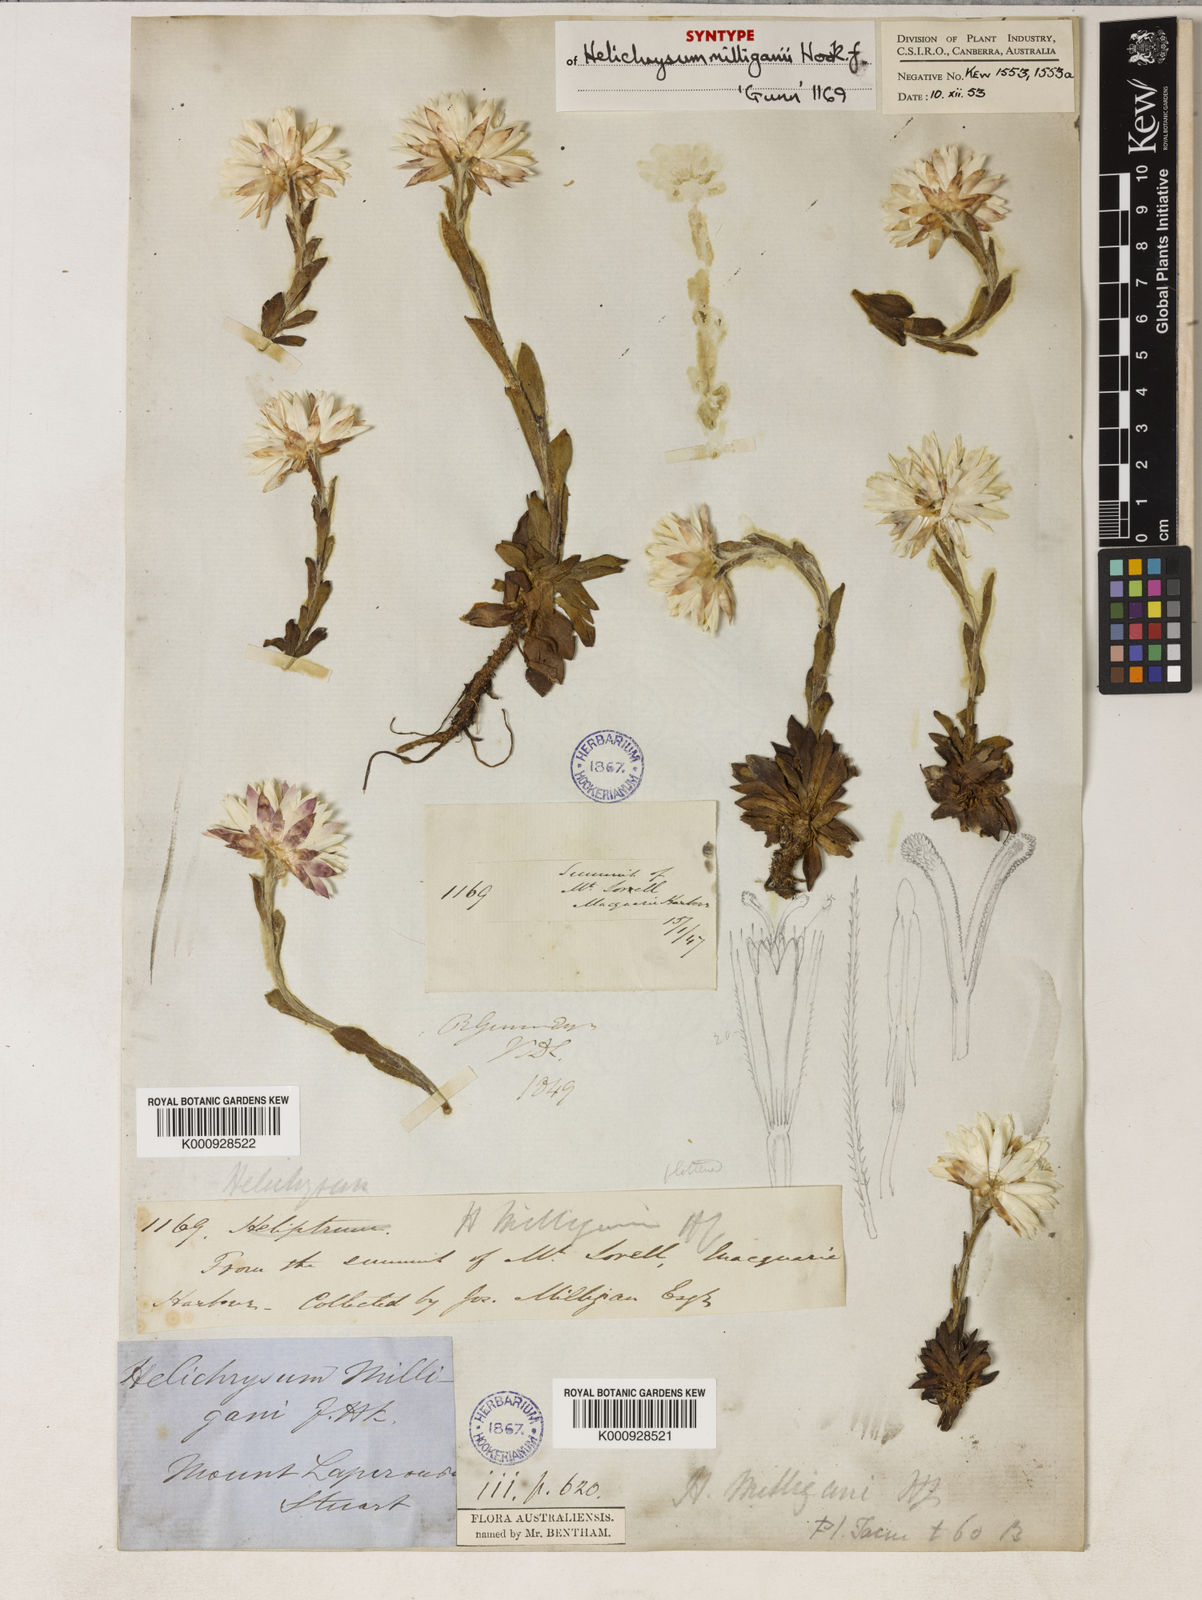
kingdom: Plantae
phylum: Tracheophyta
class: Magnoliopsida
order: Asterales
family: Asteraceae
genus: Xerochrysum
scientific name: Xerochrysum milliganii
